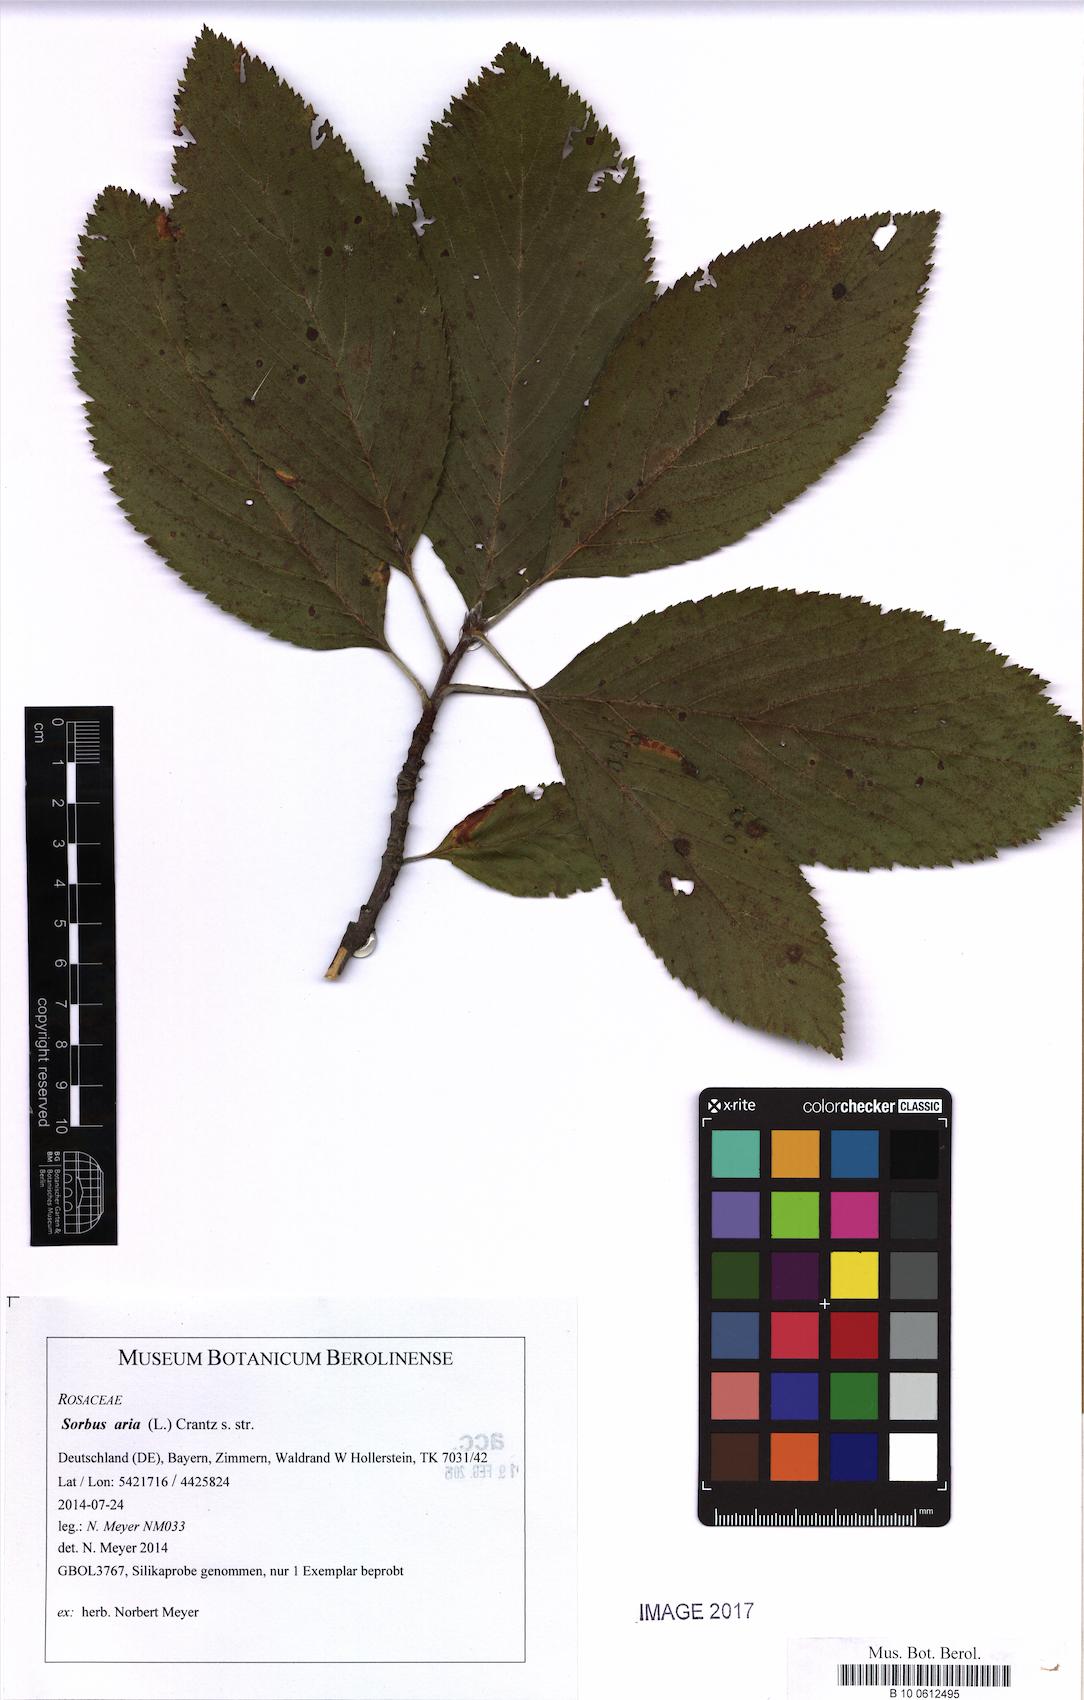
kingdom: Plantae
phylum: Tracheophyta
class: Magnoliopsida
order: Rosales
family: Rosaceae
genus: Aria
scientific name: Aria edulis
